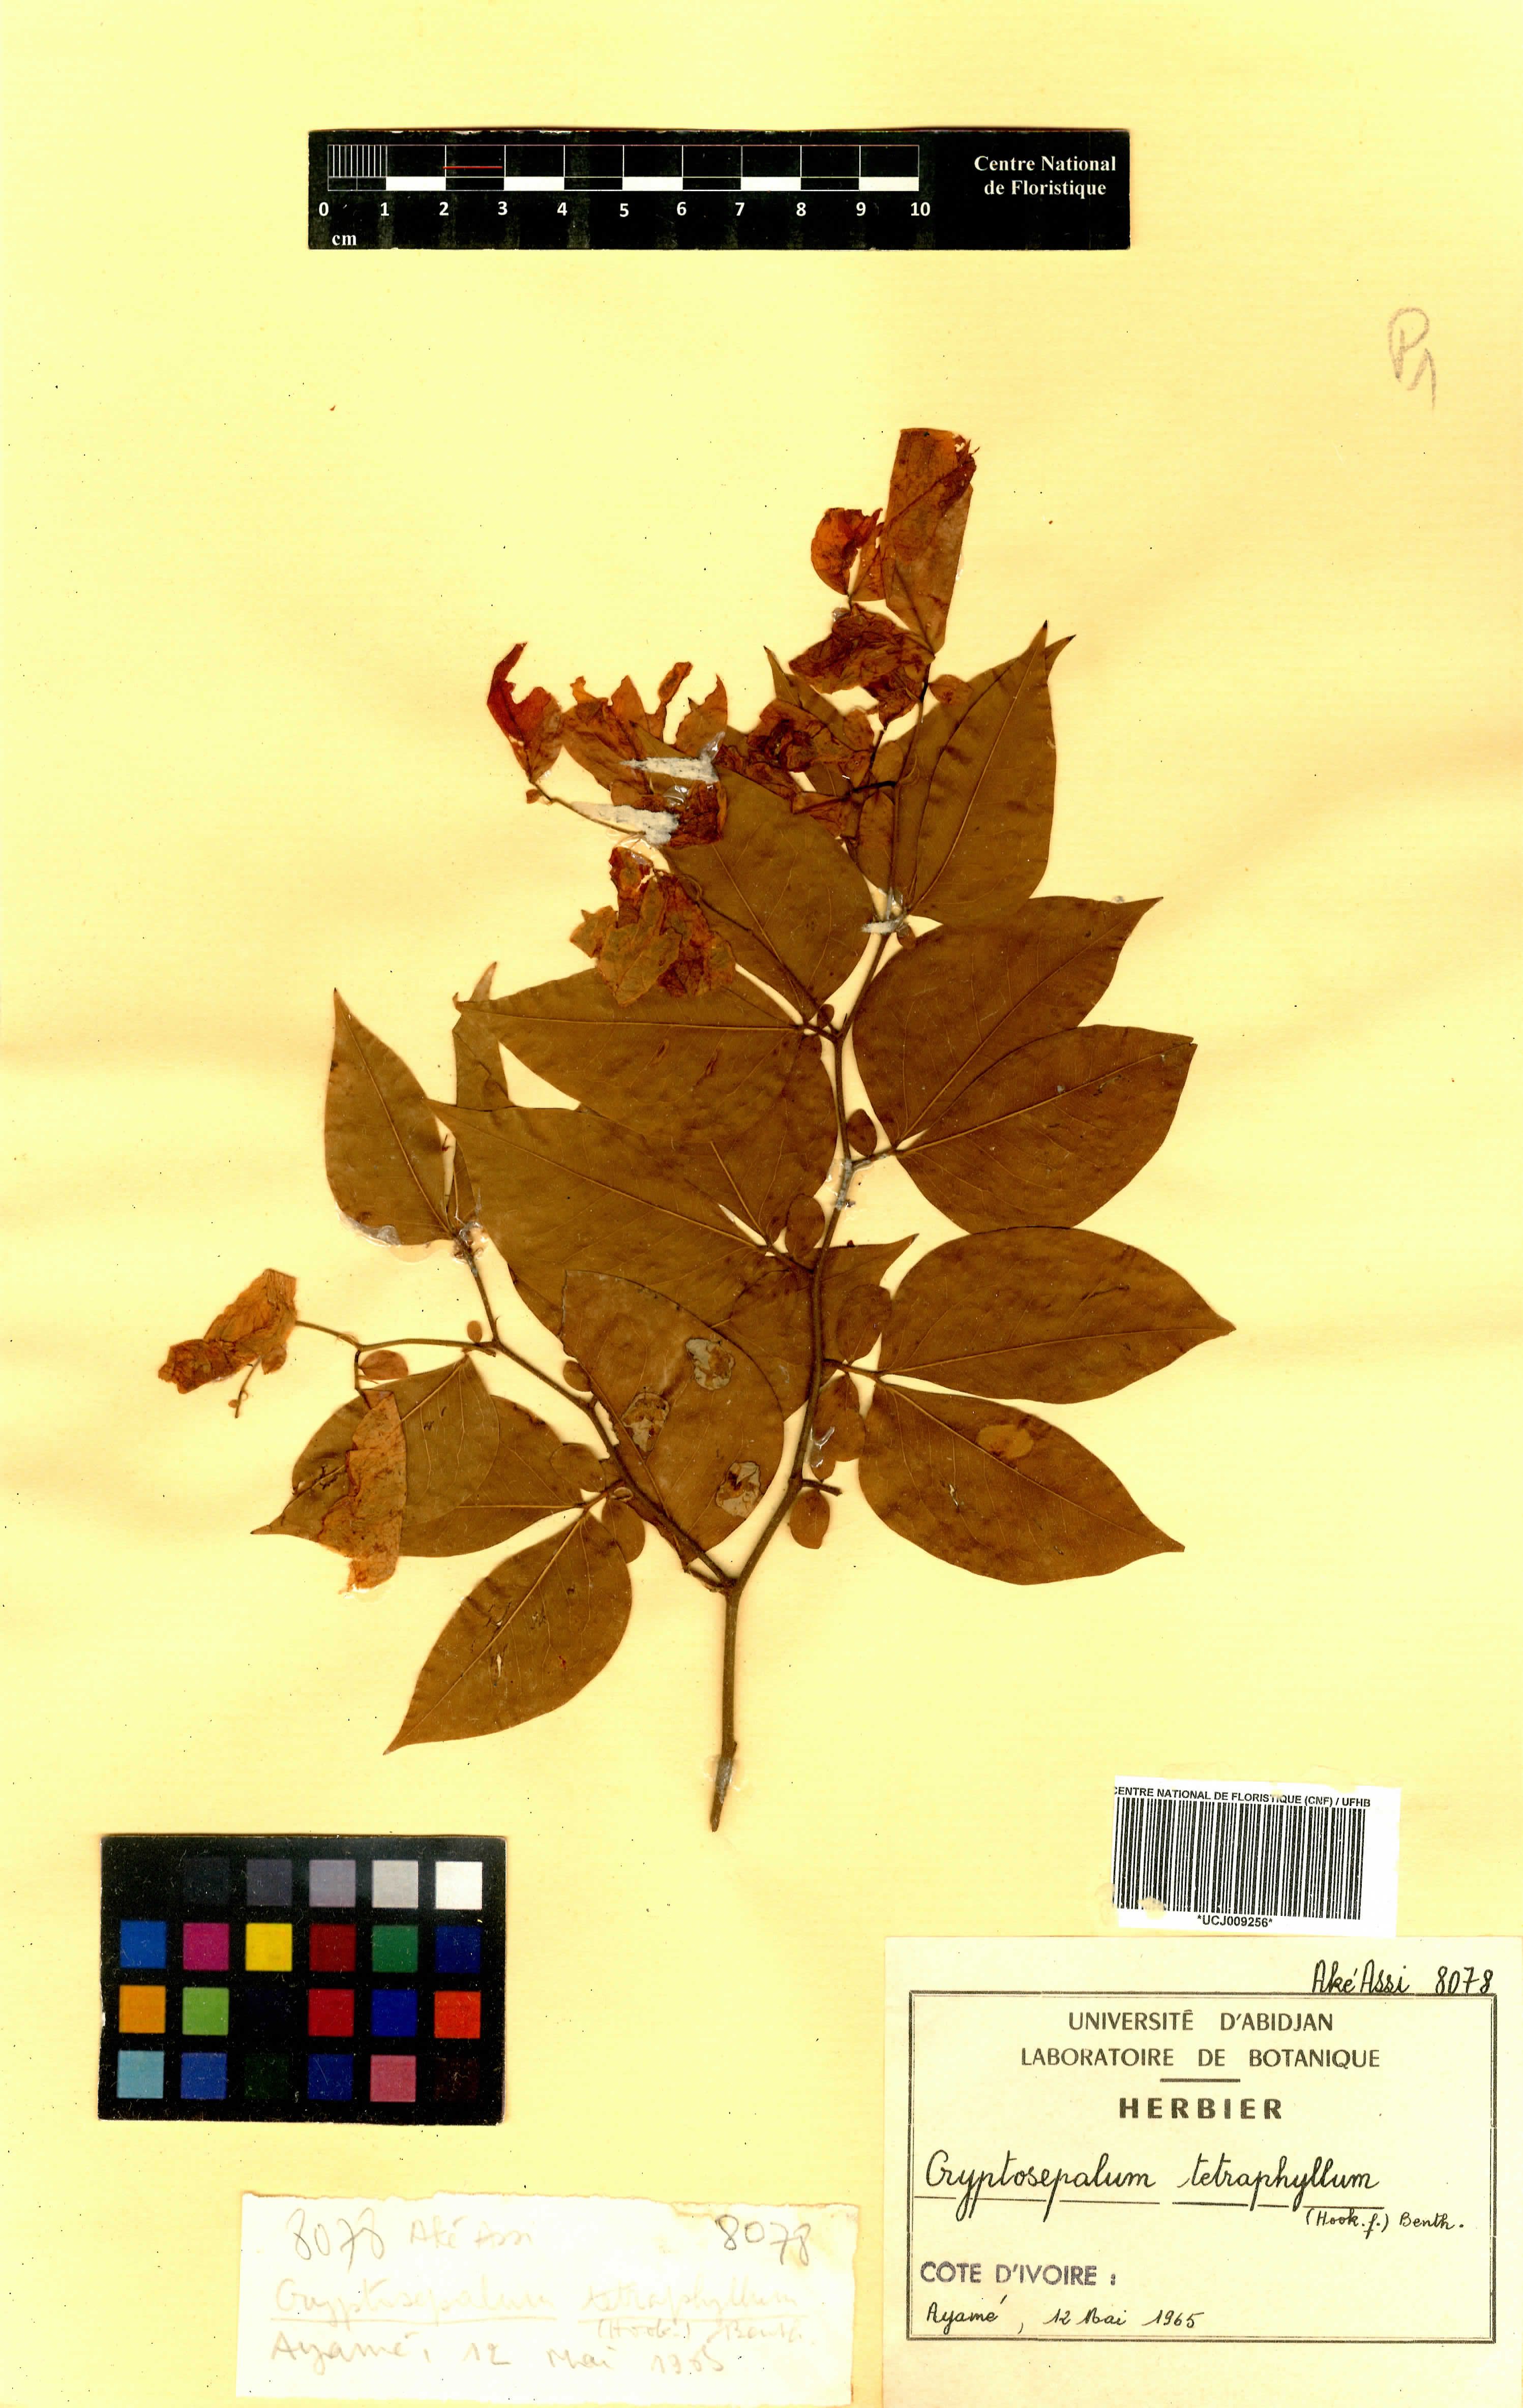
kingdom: Plantae
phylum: Tracheophyta
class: Magnoliopsida
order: Fabales
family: Fabaceae
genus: Cryptosepalum
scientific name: Cryptosepalum tetraphyllum
